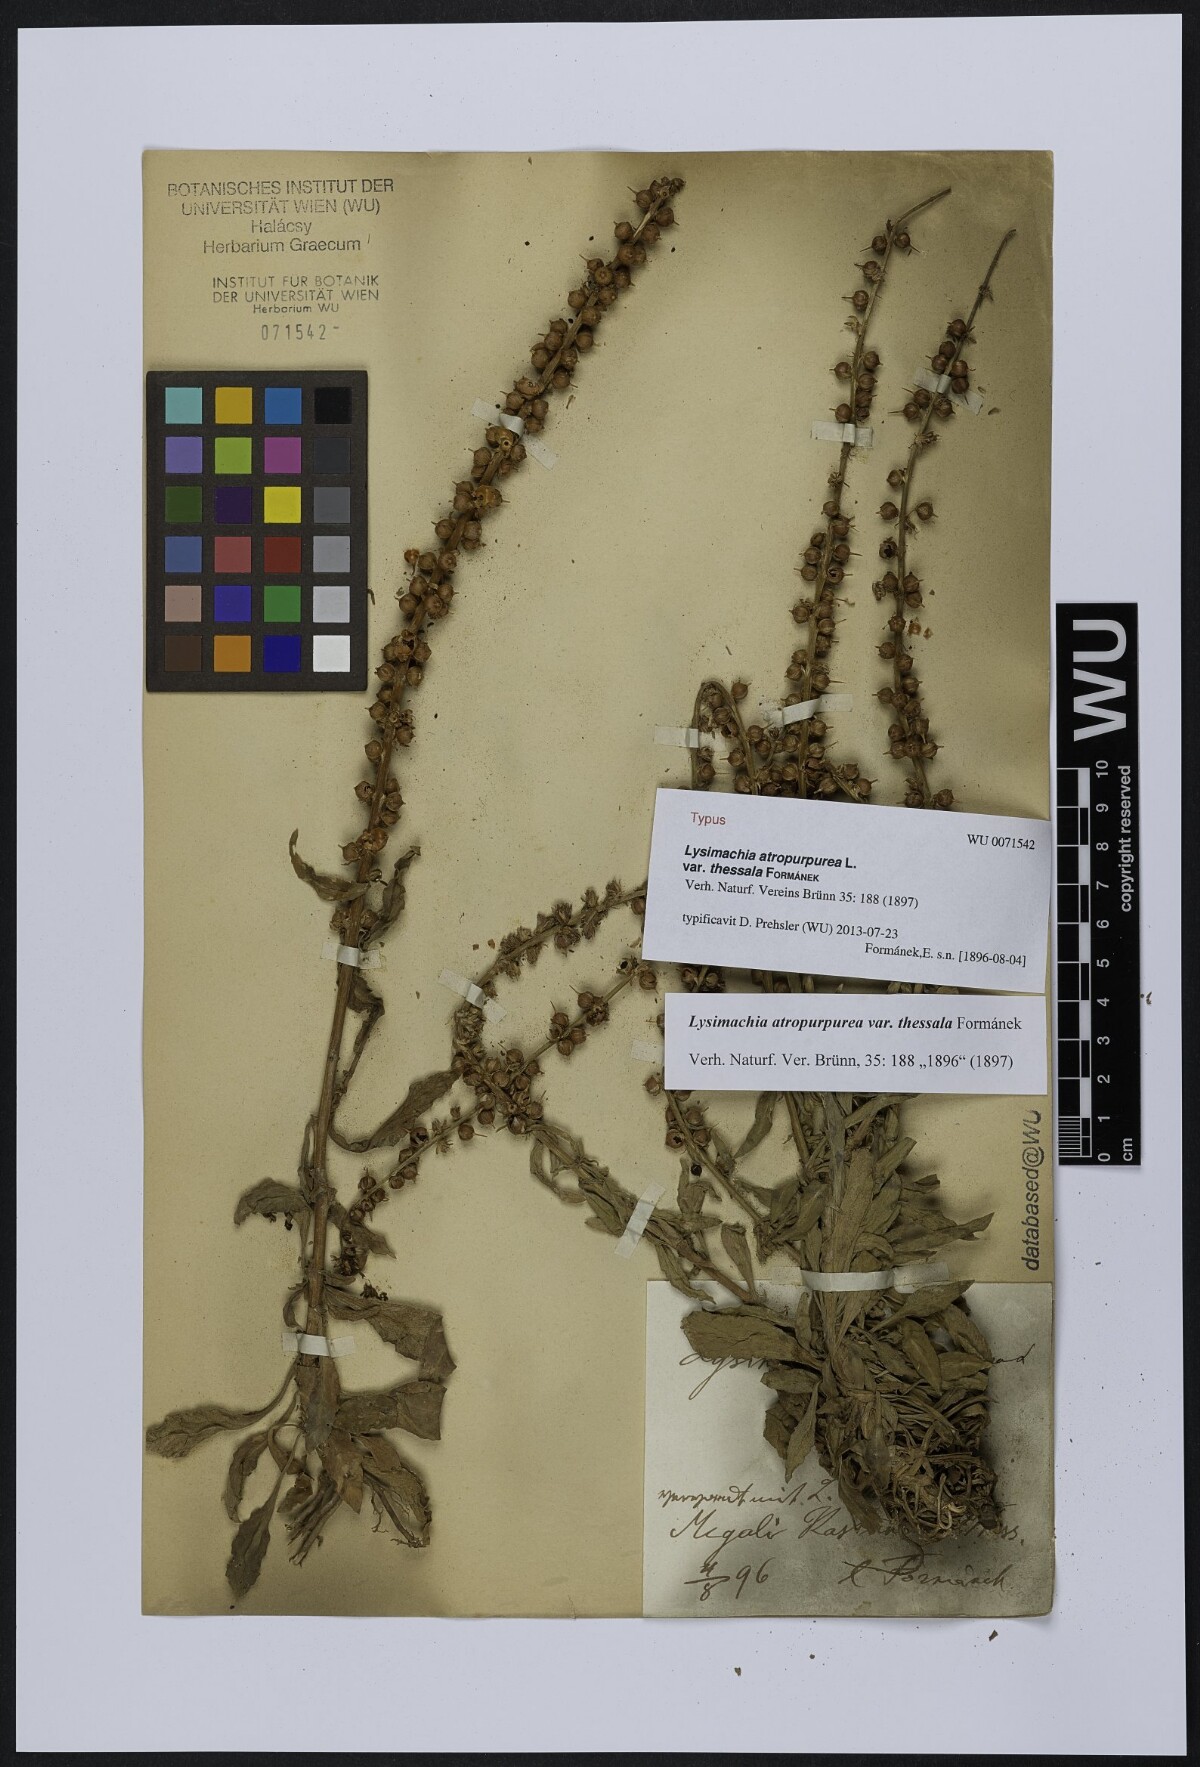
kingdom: Plantae
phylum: Tracheophyta
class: Magnoliopsida
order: Ericales
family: Primulaceae
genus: Lysimachia
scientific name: Lysimachia atropurpurea
